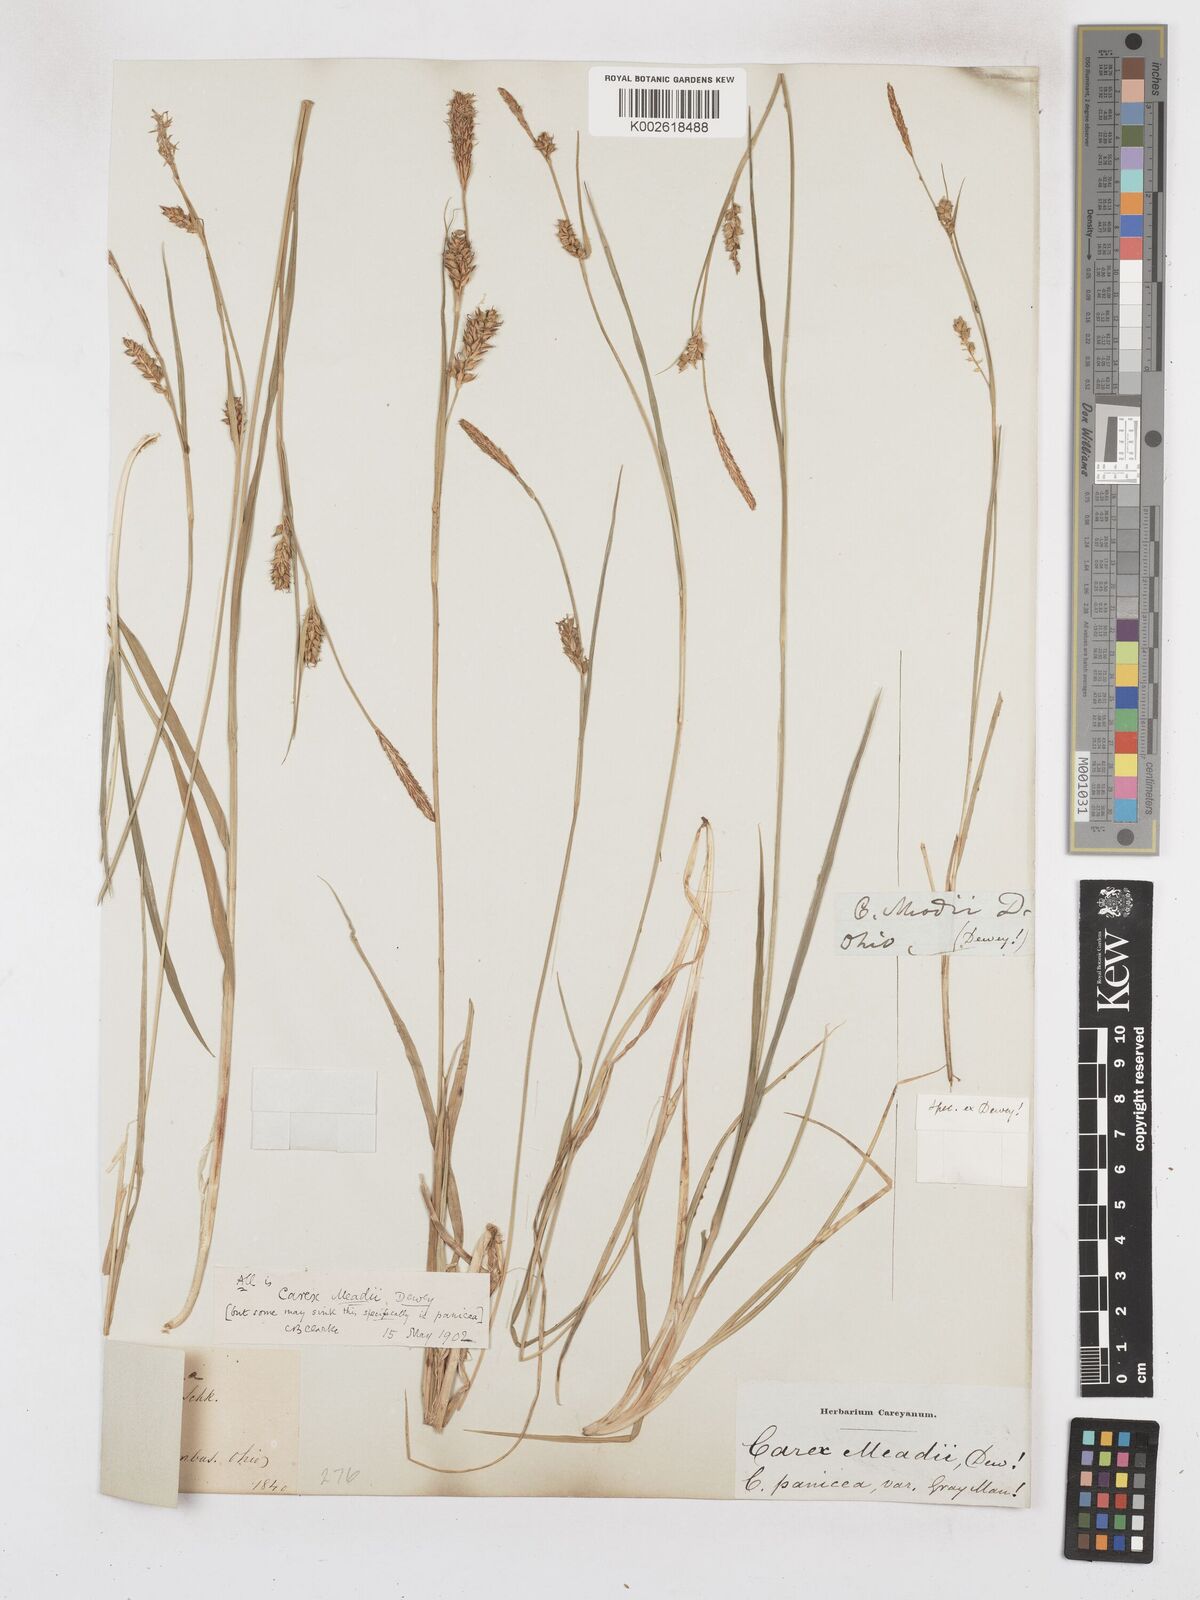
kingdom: Plantae
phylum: Tracheophyta
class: Liliopsida
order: Poales
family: Cyperaceae
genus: Carex
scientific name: Carex meadii
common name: Mead's sedge
